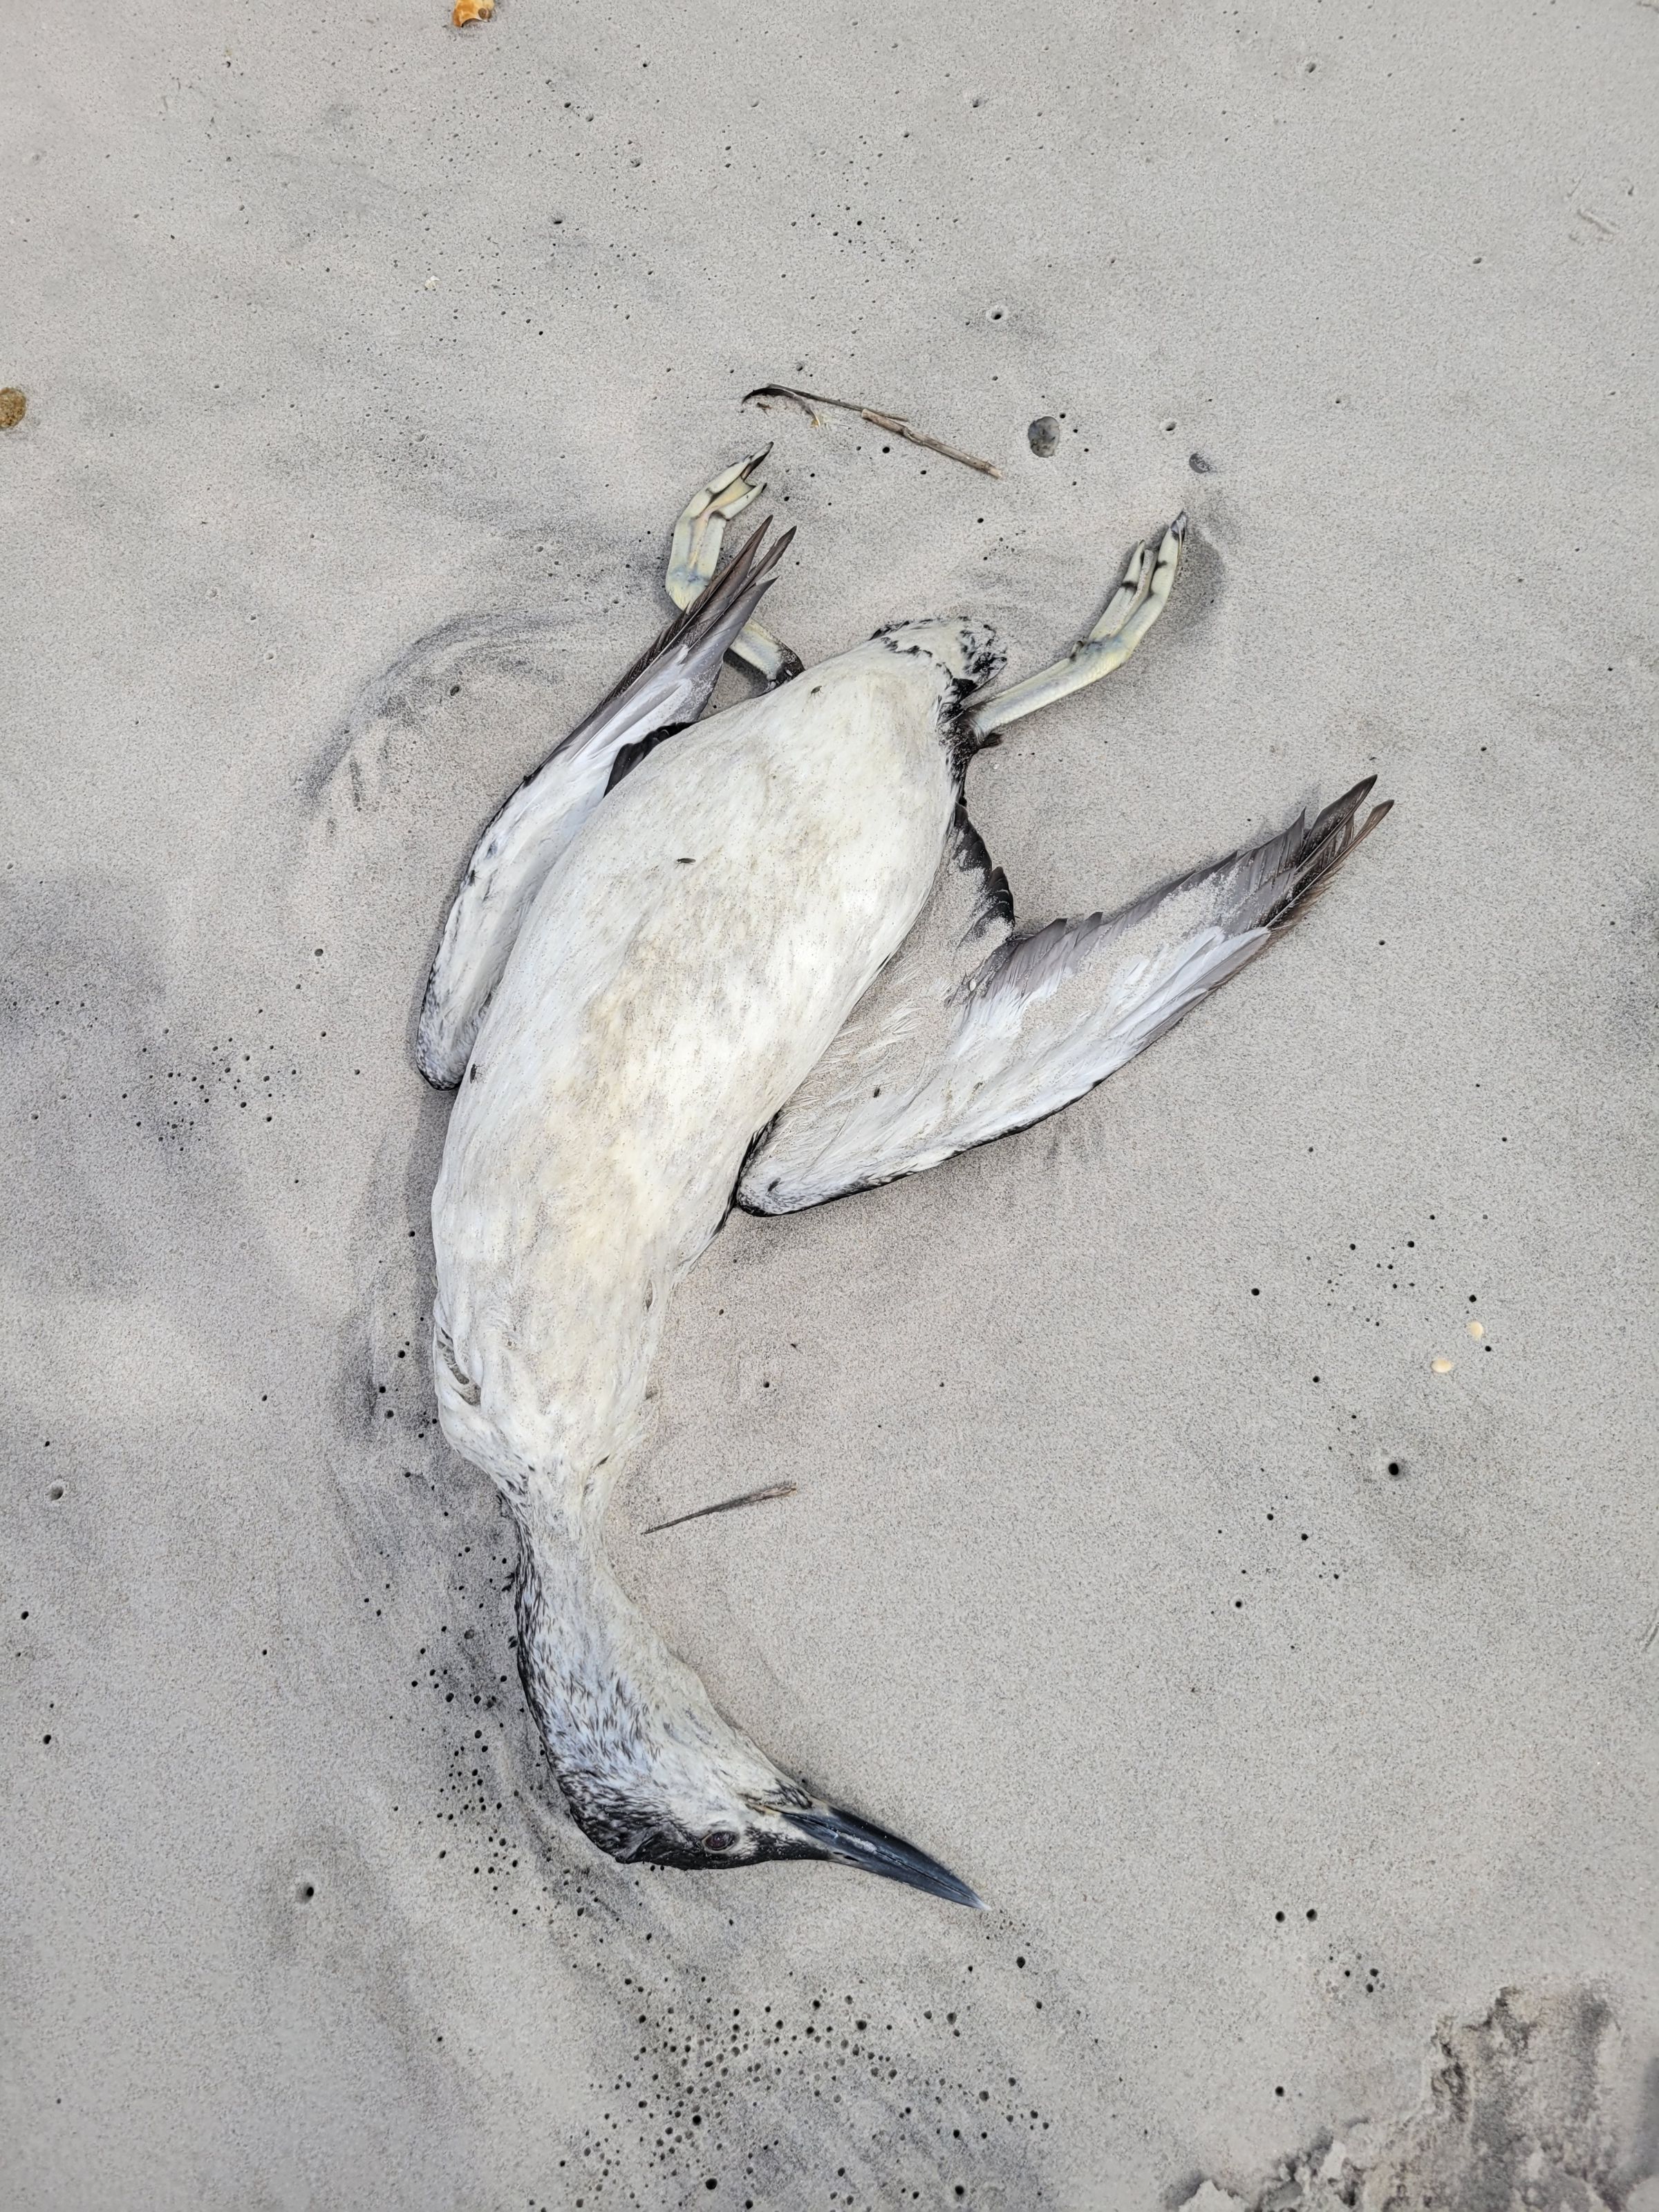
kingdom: Animalia
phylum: Chordata
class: Aves
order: Gaviiformes
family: Gaviidae
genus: Gavia
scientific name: Gavia stellata
